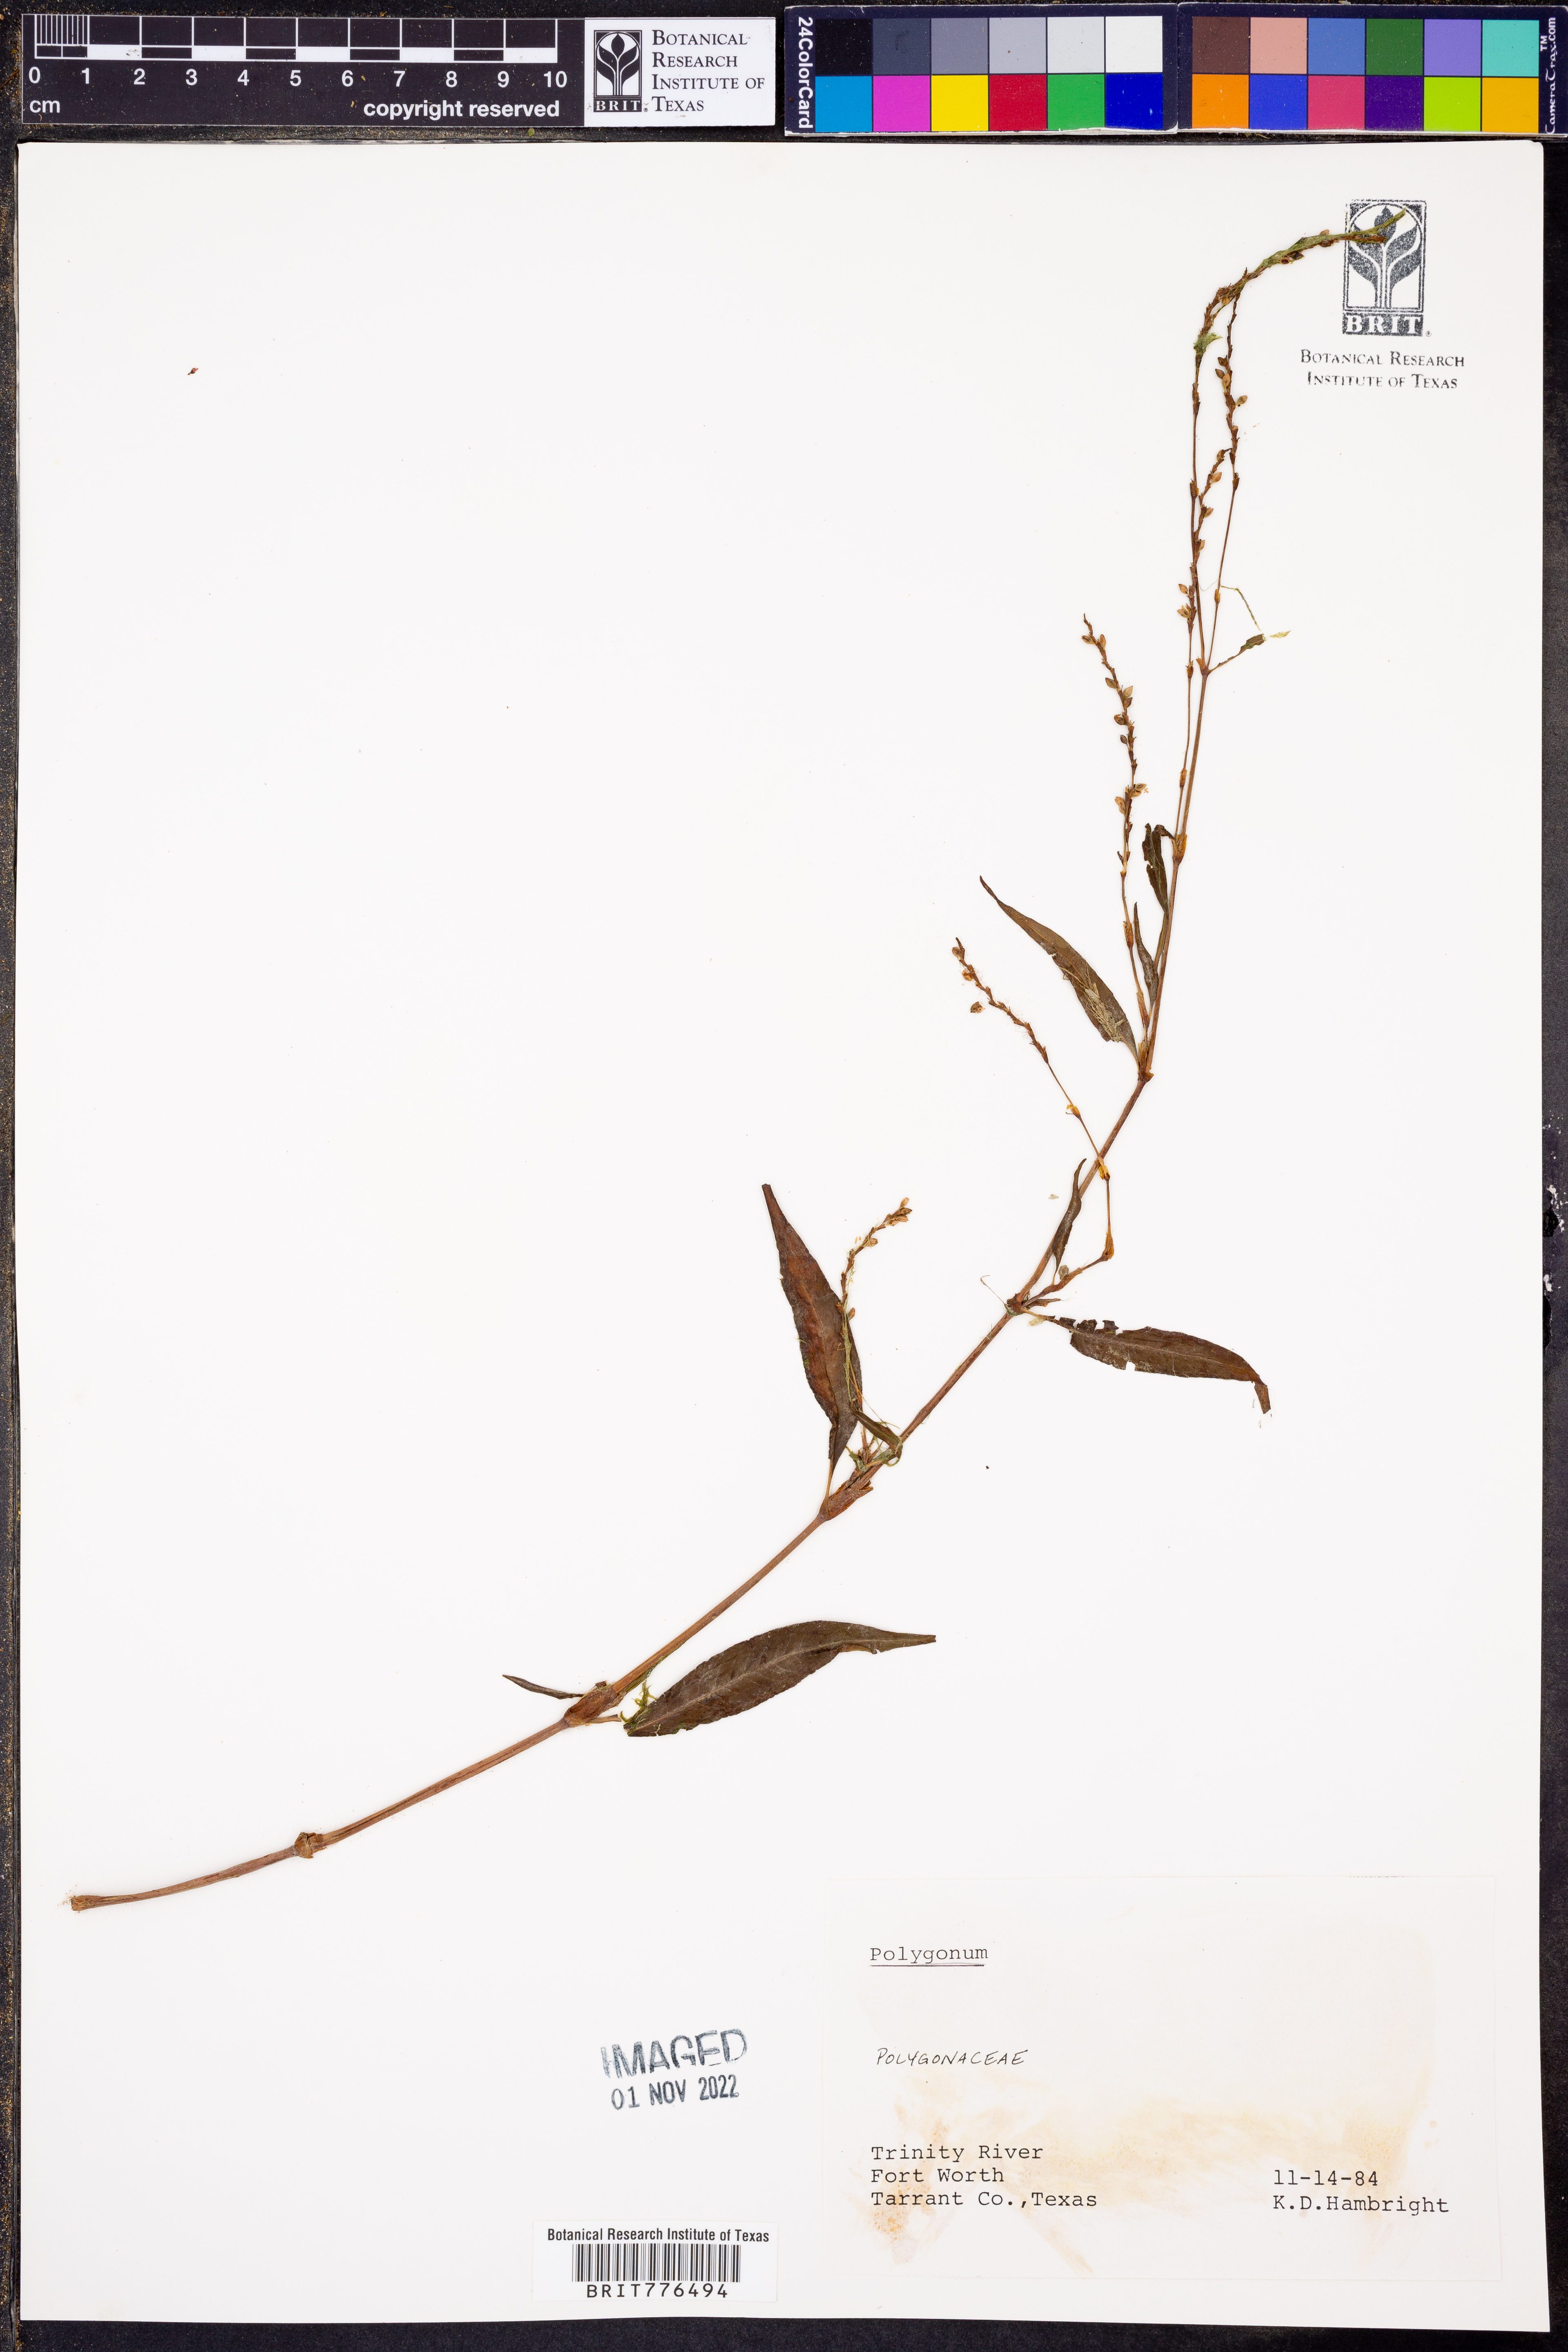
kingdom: Plantae
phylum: Tracheophyta
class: Magnoliopsida
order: Caryophyllales
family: Polygonaceae
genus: Polygonum
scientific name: Polygonum
